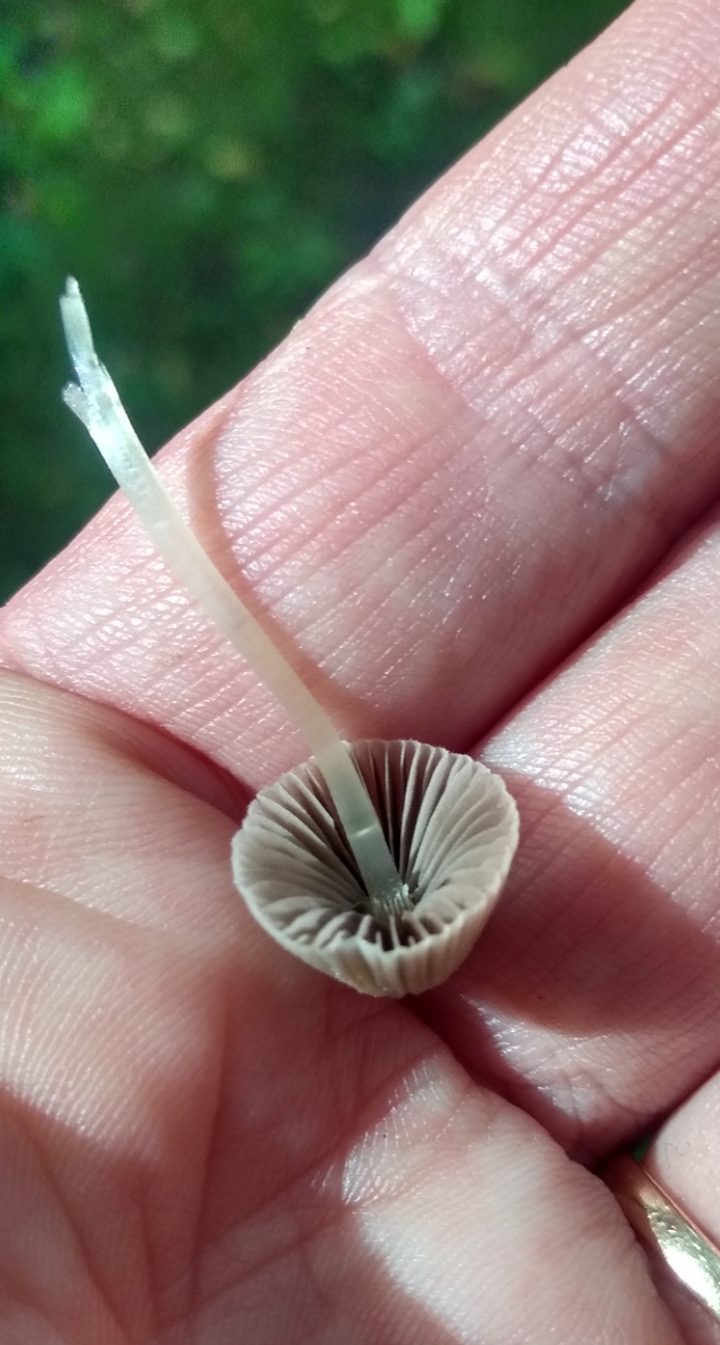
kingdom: Fungi
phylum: Basidiomycota
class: Agaricomycetes
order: Agaricales
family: Psathyrellaceae
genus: Coprinellus
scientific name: Coprinellus disseminatus
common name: bredsået blækhat
